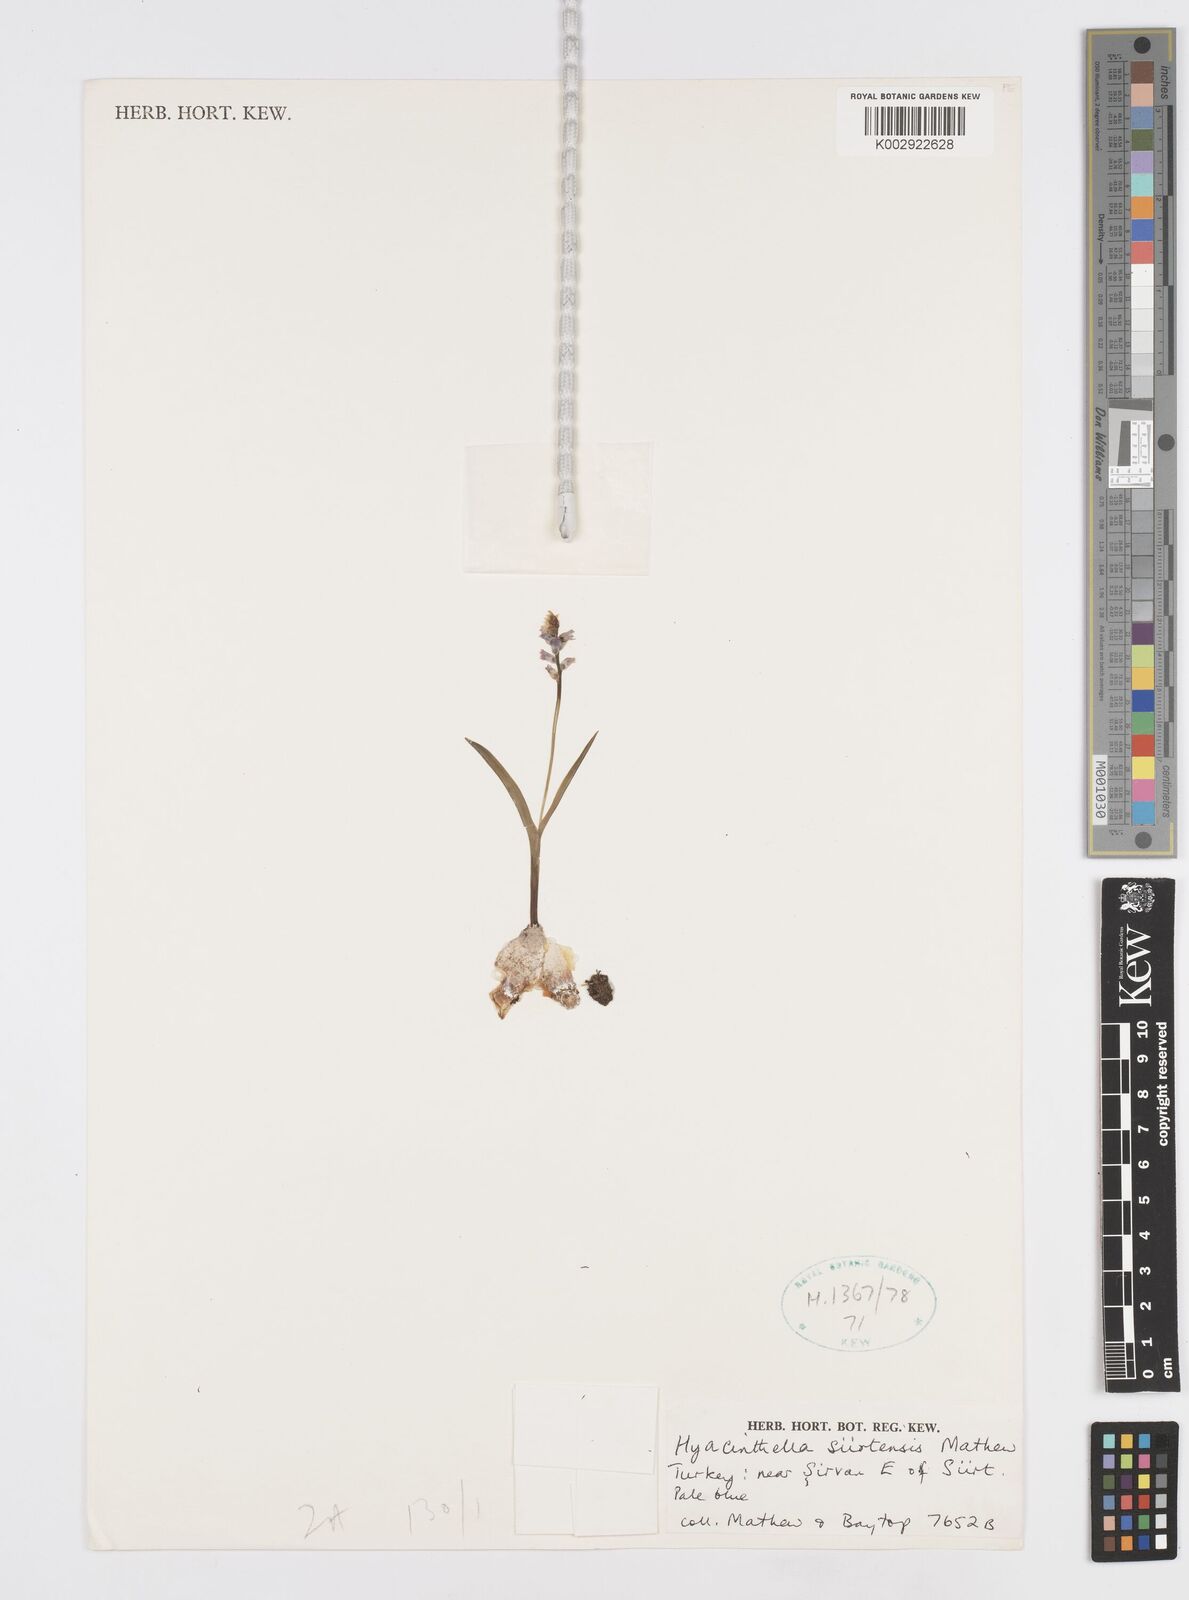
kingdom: Plantae
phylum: Tracheophyta
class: Liliopsida
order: Asparagales
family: Asparagaceae
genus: Hyacinthella
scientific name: Hyacinthella lineata
